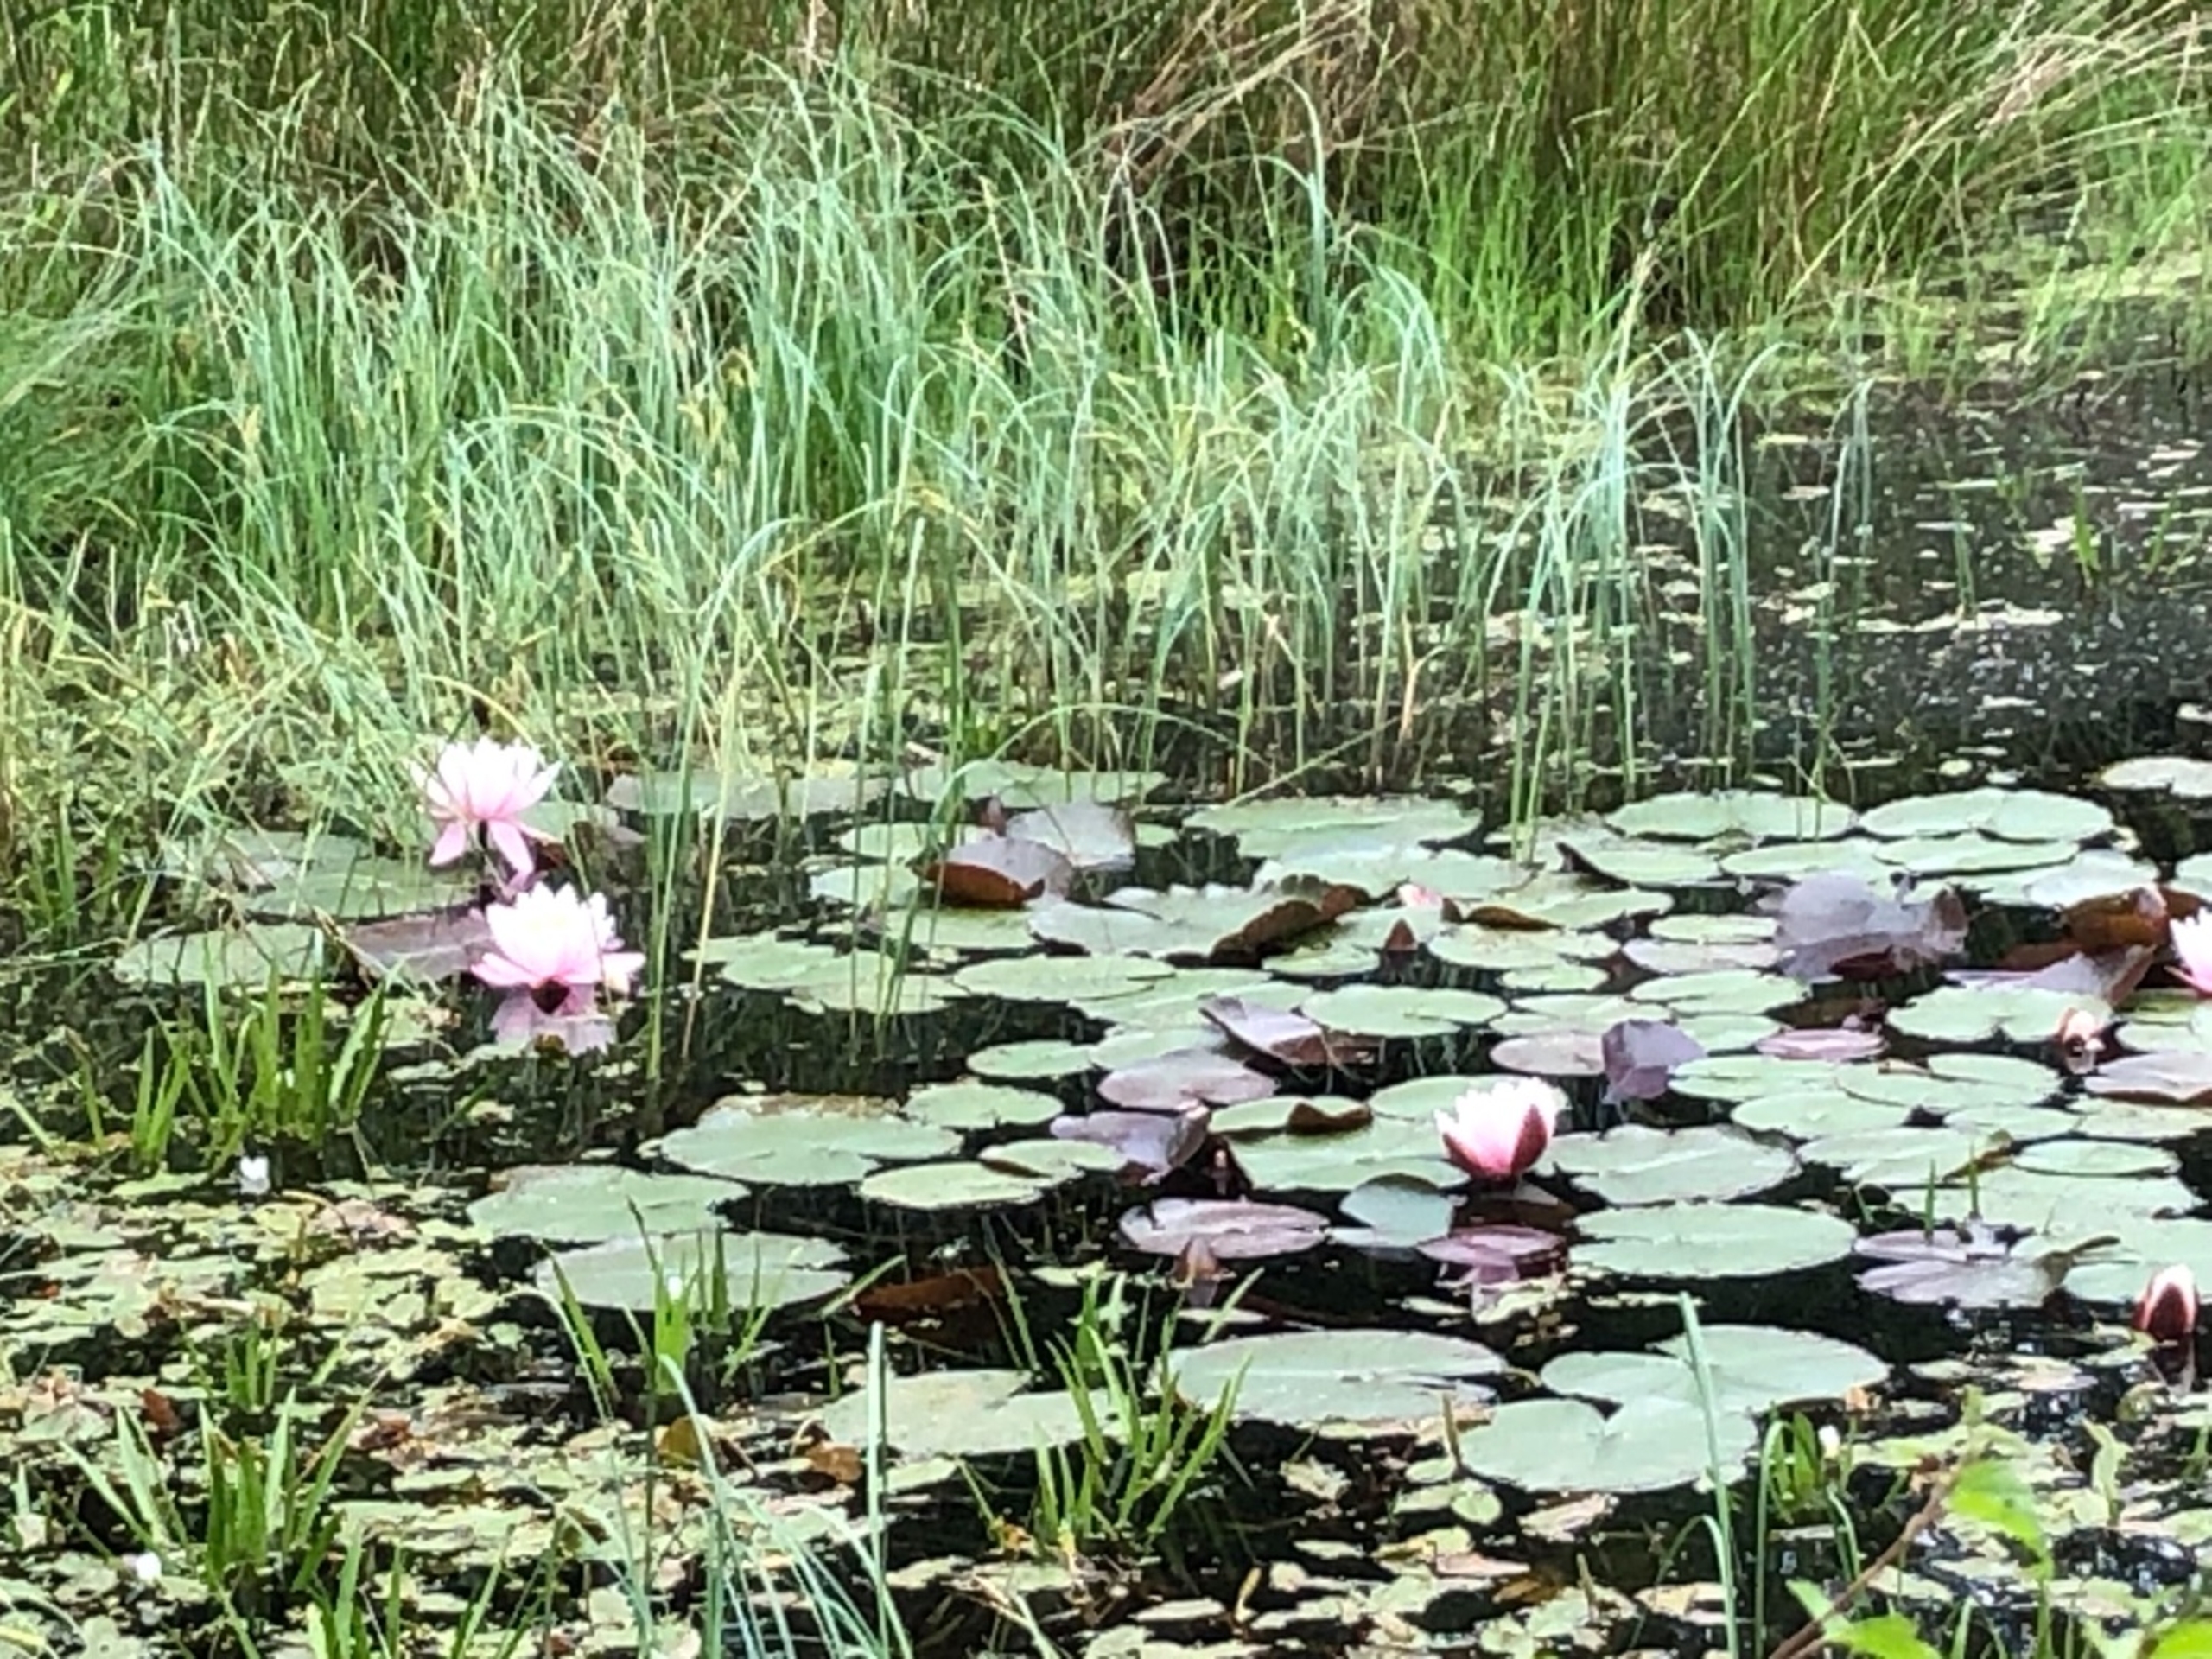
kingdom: Plantae
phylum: Tracheophyta
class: Magnoliopsida
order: Nymphaeales
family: Nymphaeaceae
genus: Nymphaea
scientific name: Nymphaea alba
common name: Hvid åkande
